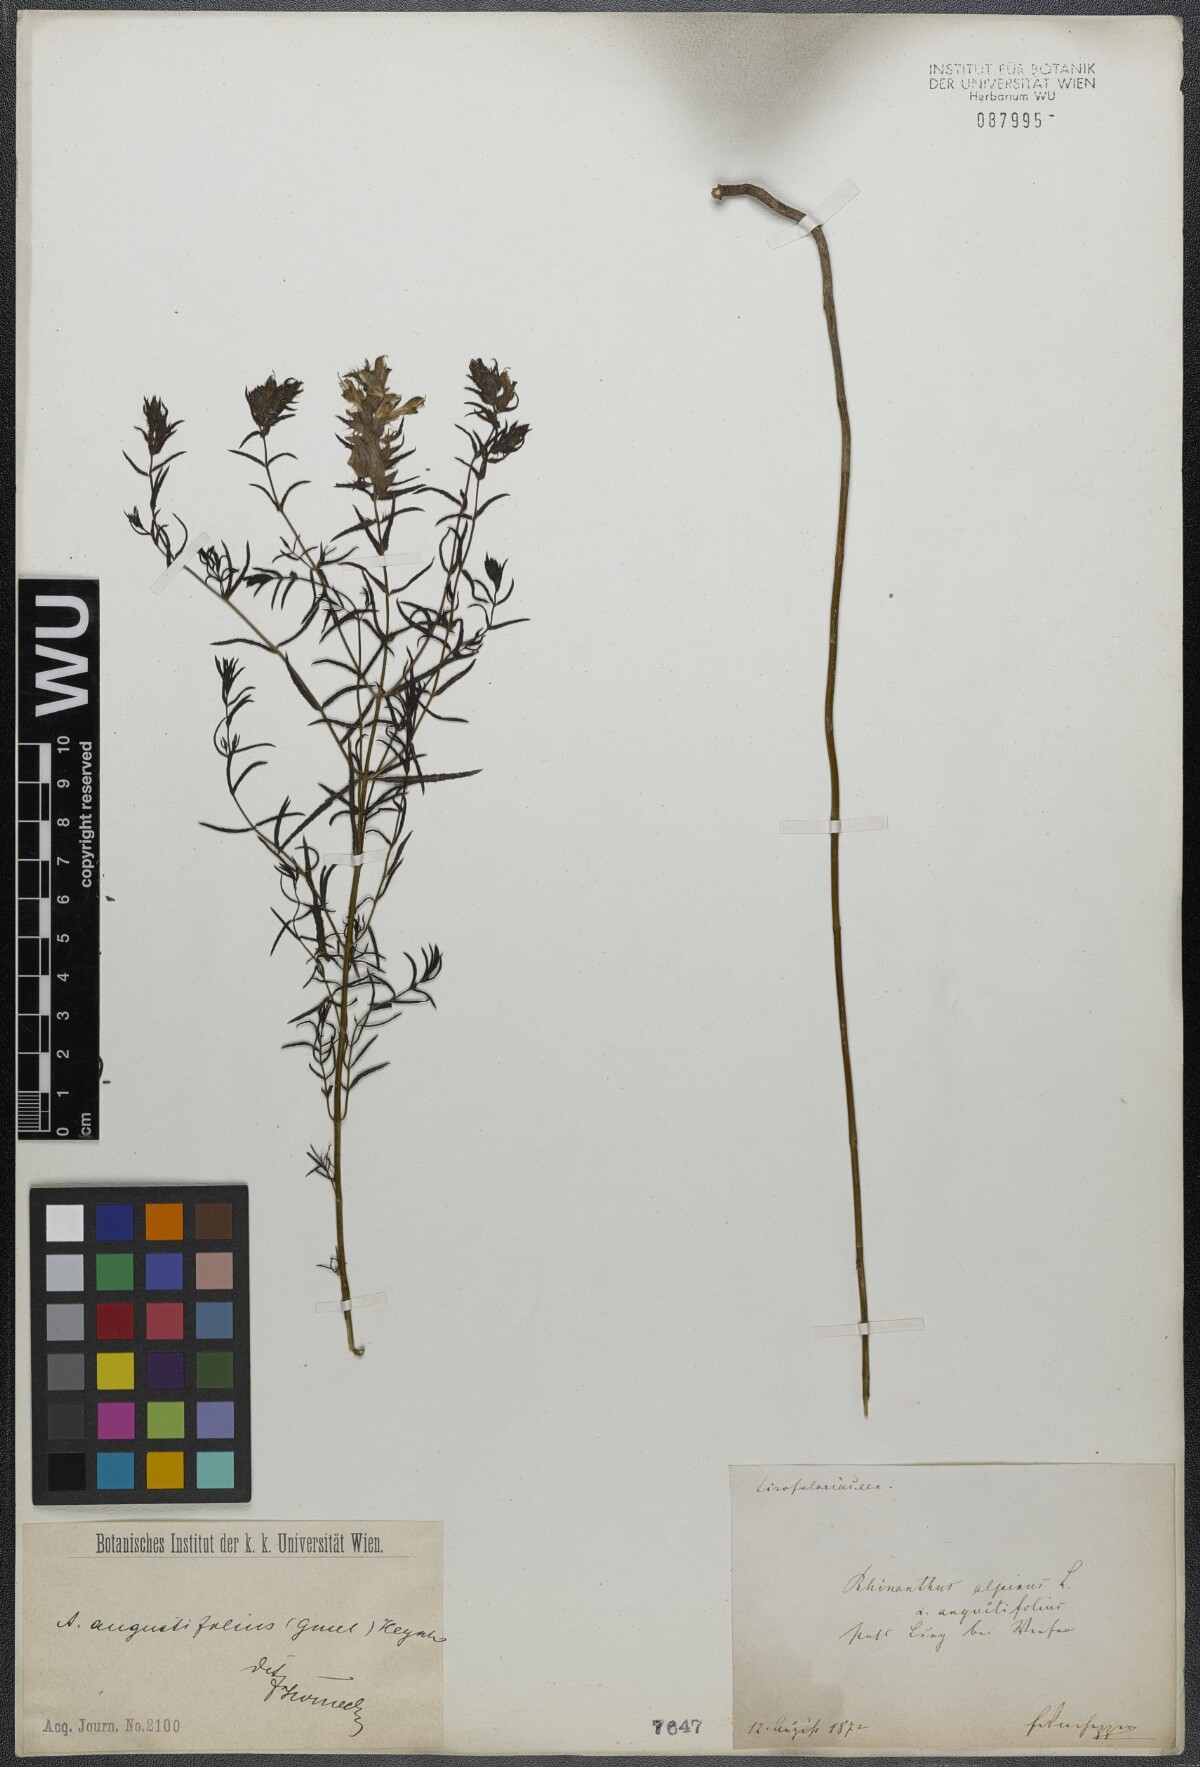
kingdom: Plantae
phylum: Tracheophyta
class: Magnoliopsida
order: Lamiales
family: Orobanchaceae
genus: Rhinanthus
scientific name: Rhinanthus
